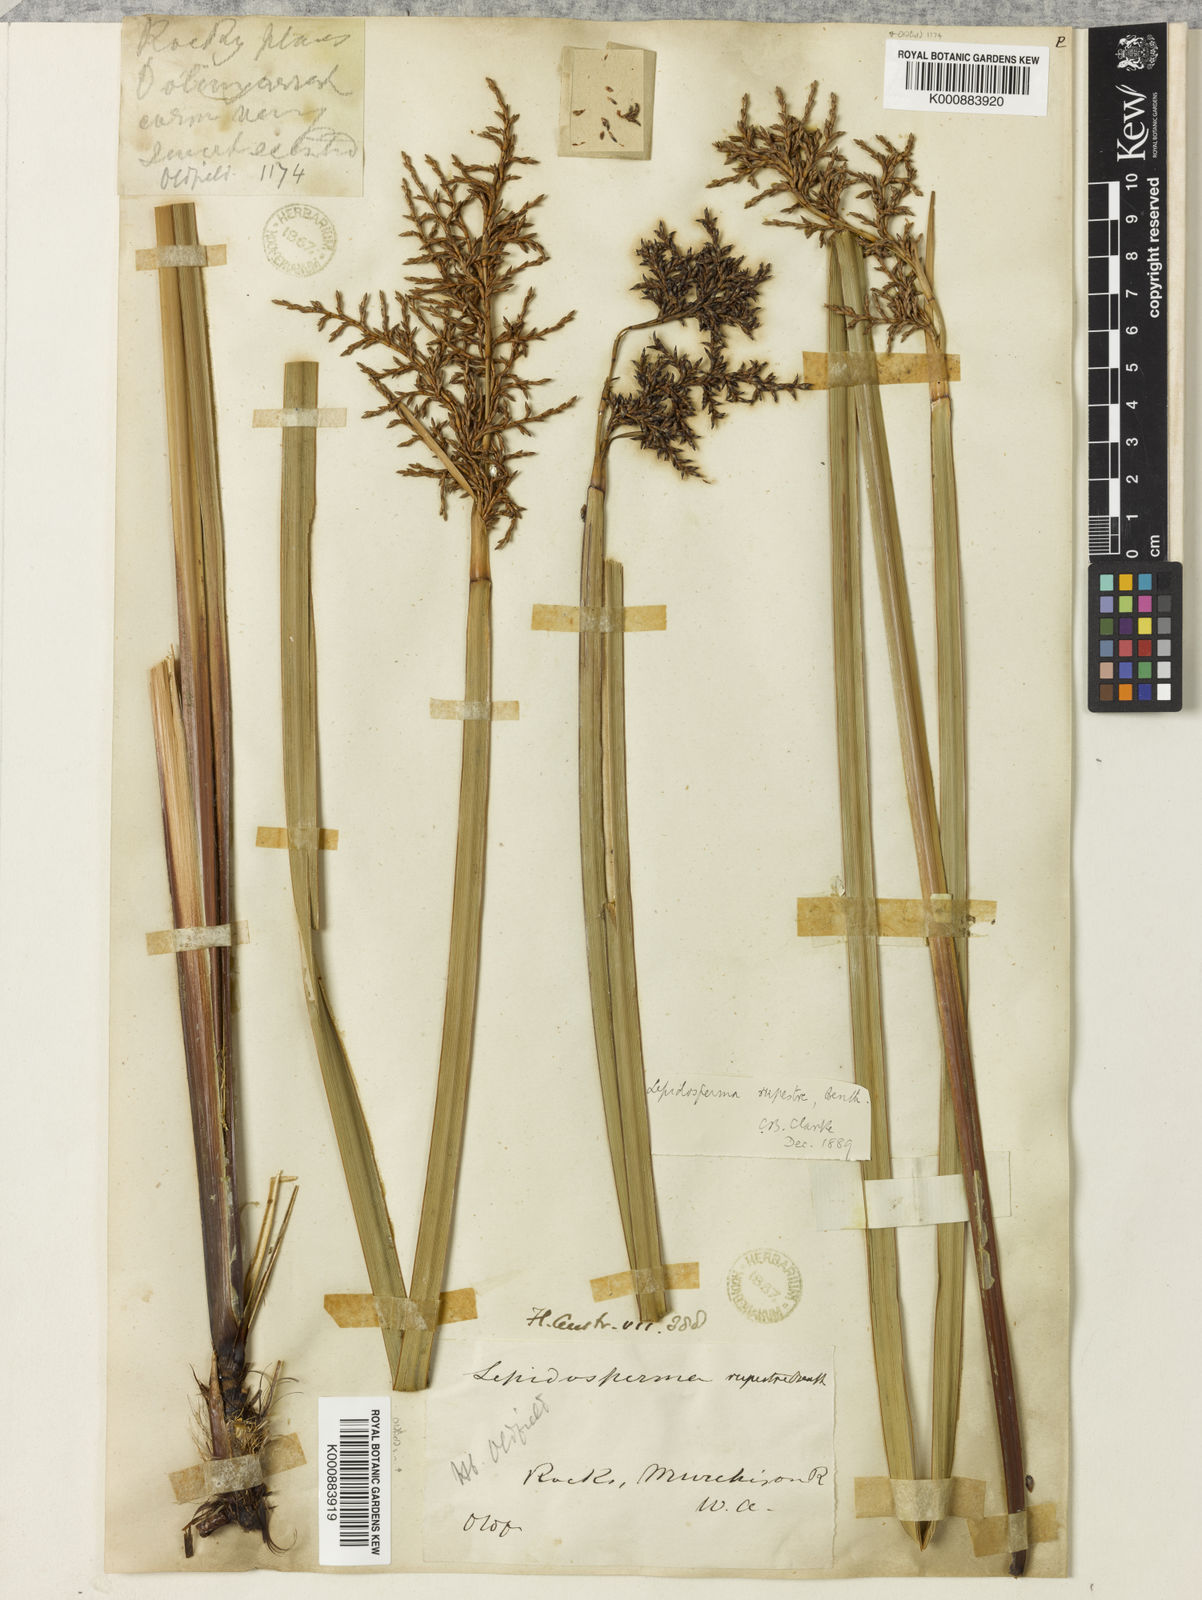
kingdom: Plantae
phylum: Tracheophyta
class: Liliopsida
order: Poales
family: Cyperaceae
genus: Lepidosperma
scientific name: Lepidosperma rupestre
